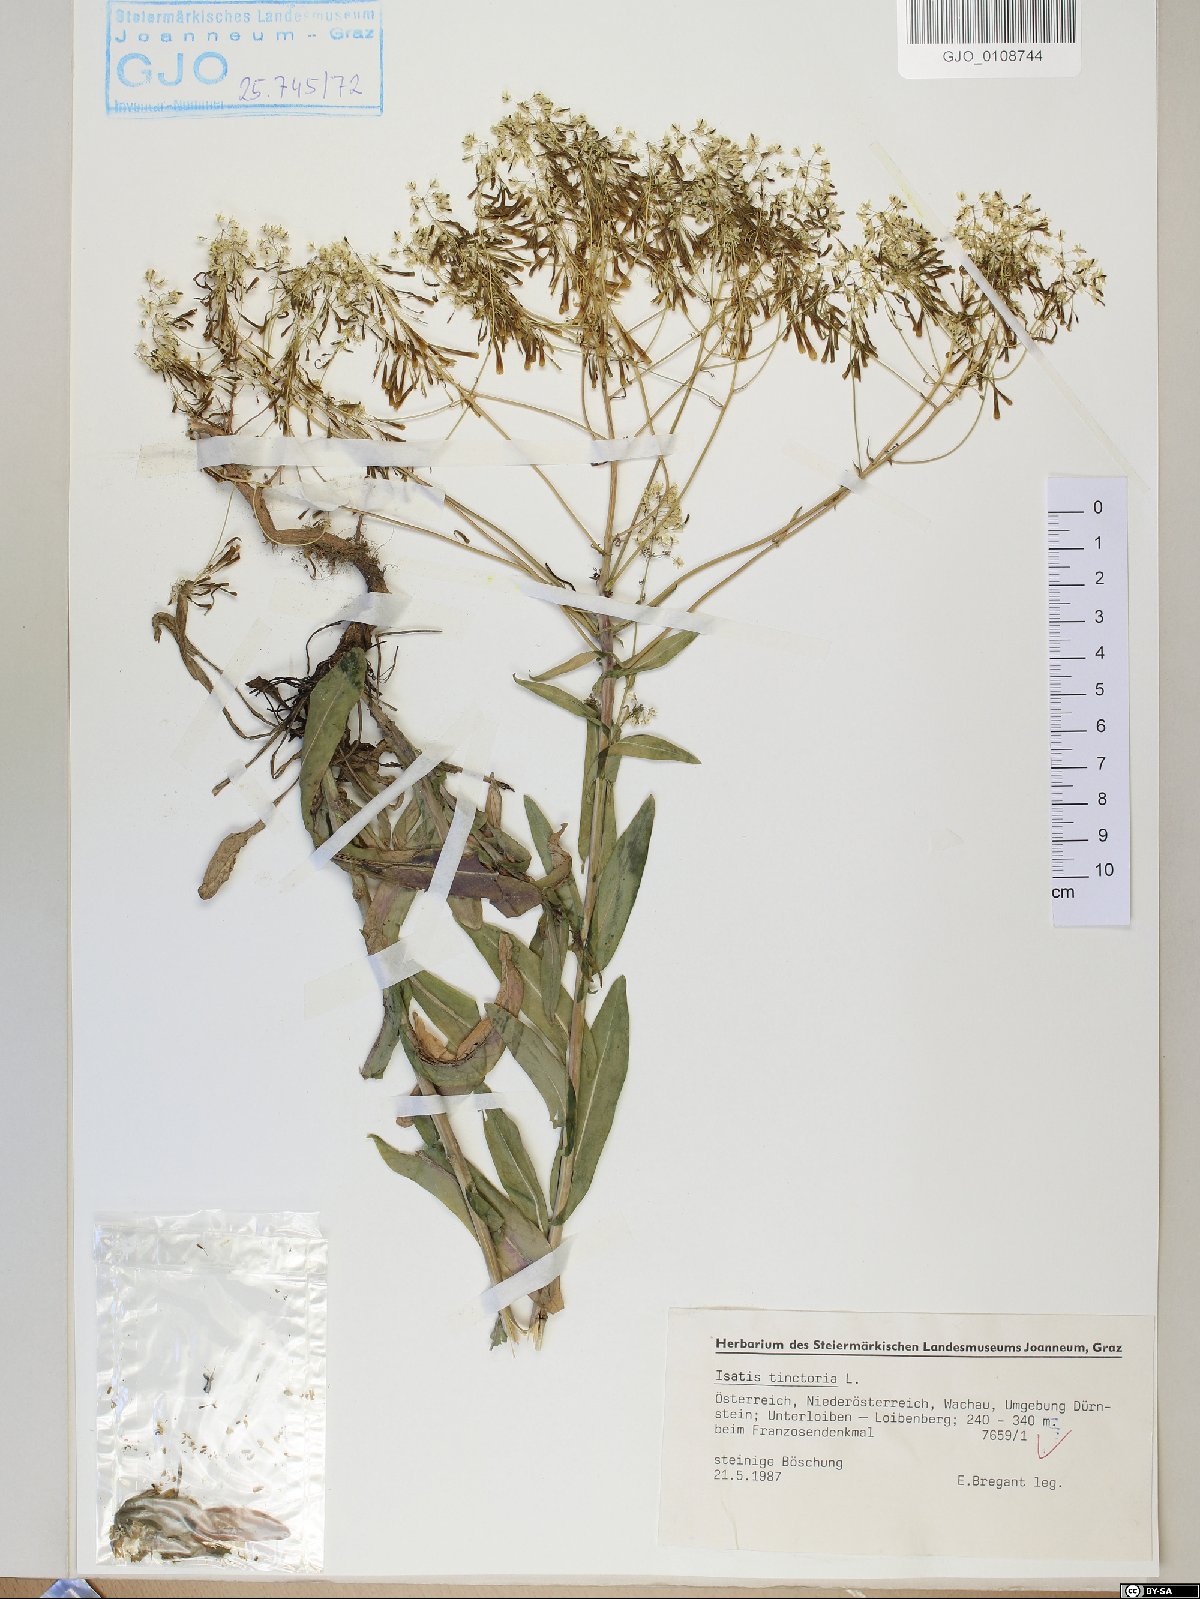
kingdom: Plantae
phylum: Tracheophyta
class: Magnoliopsida
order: Brassicales
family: Brassicaceae
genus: Isatis
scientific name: Isatis tinctoria
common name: Woad
